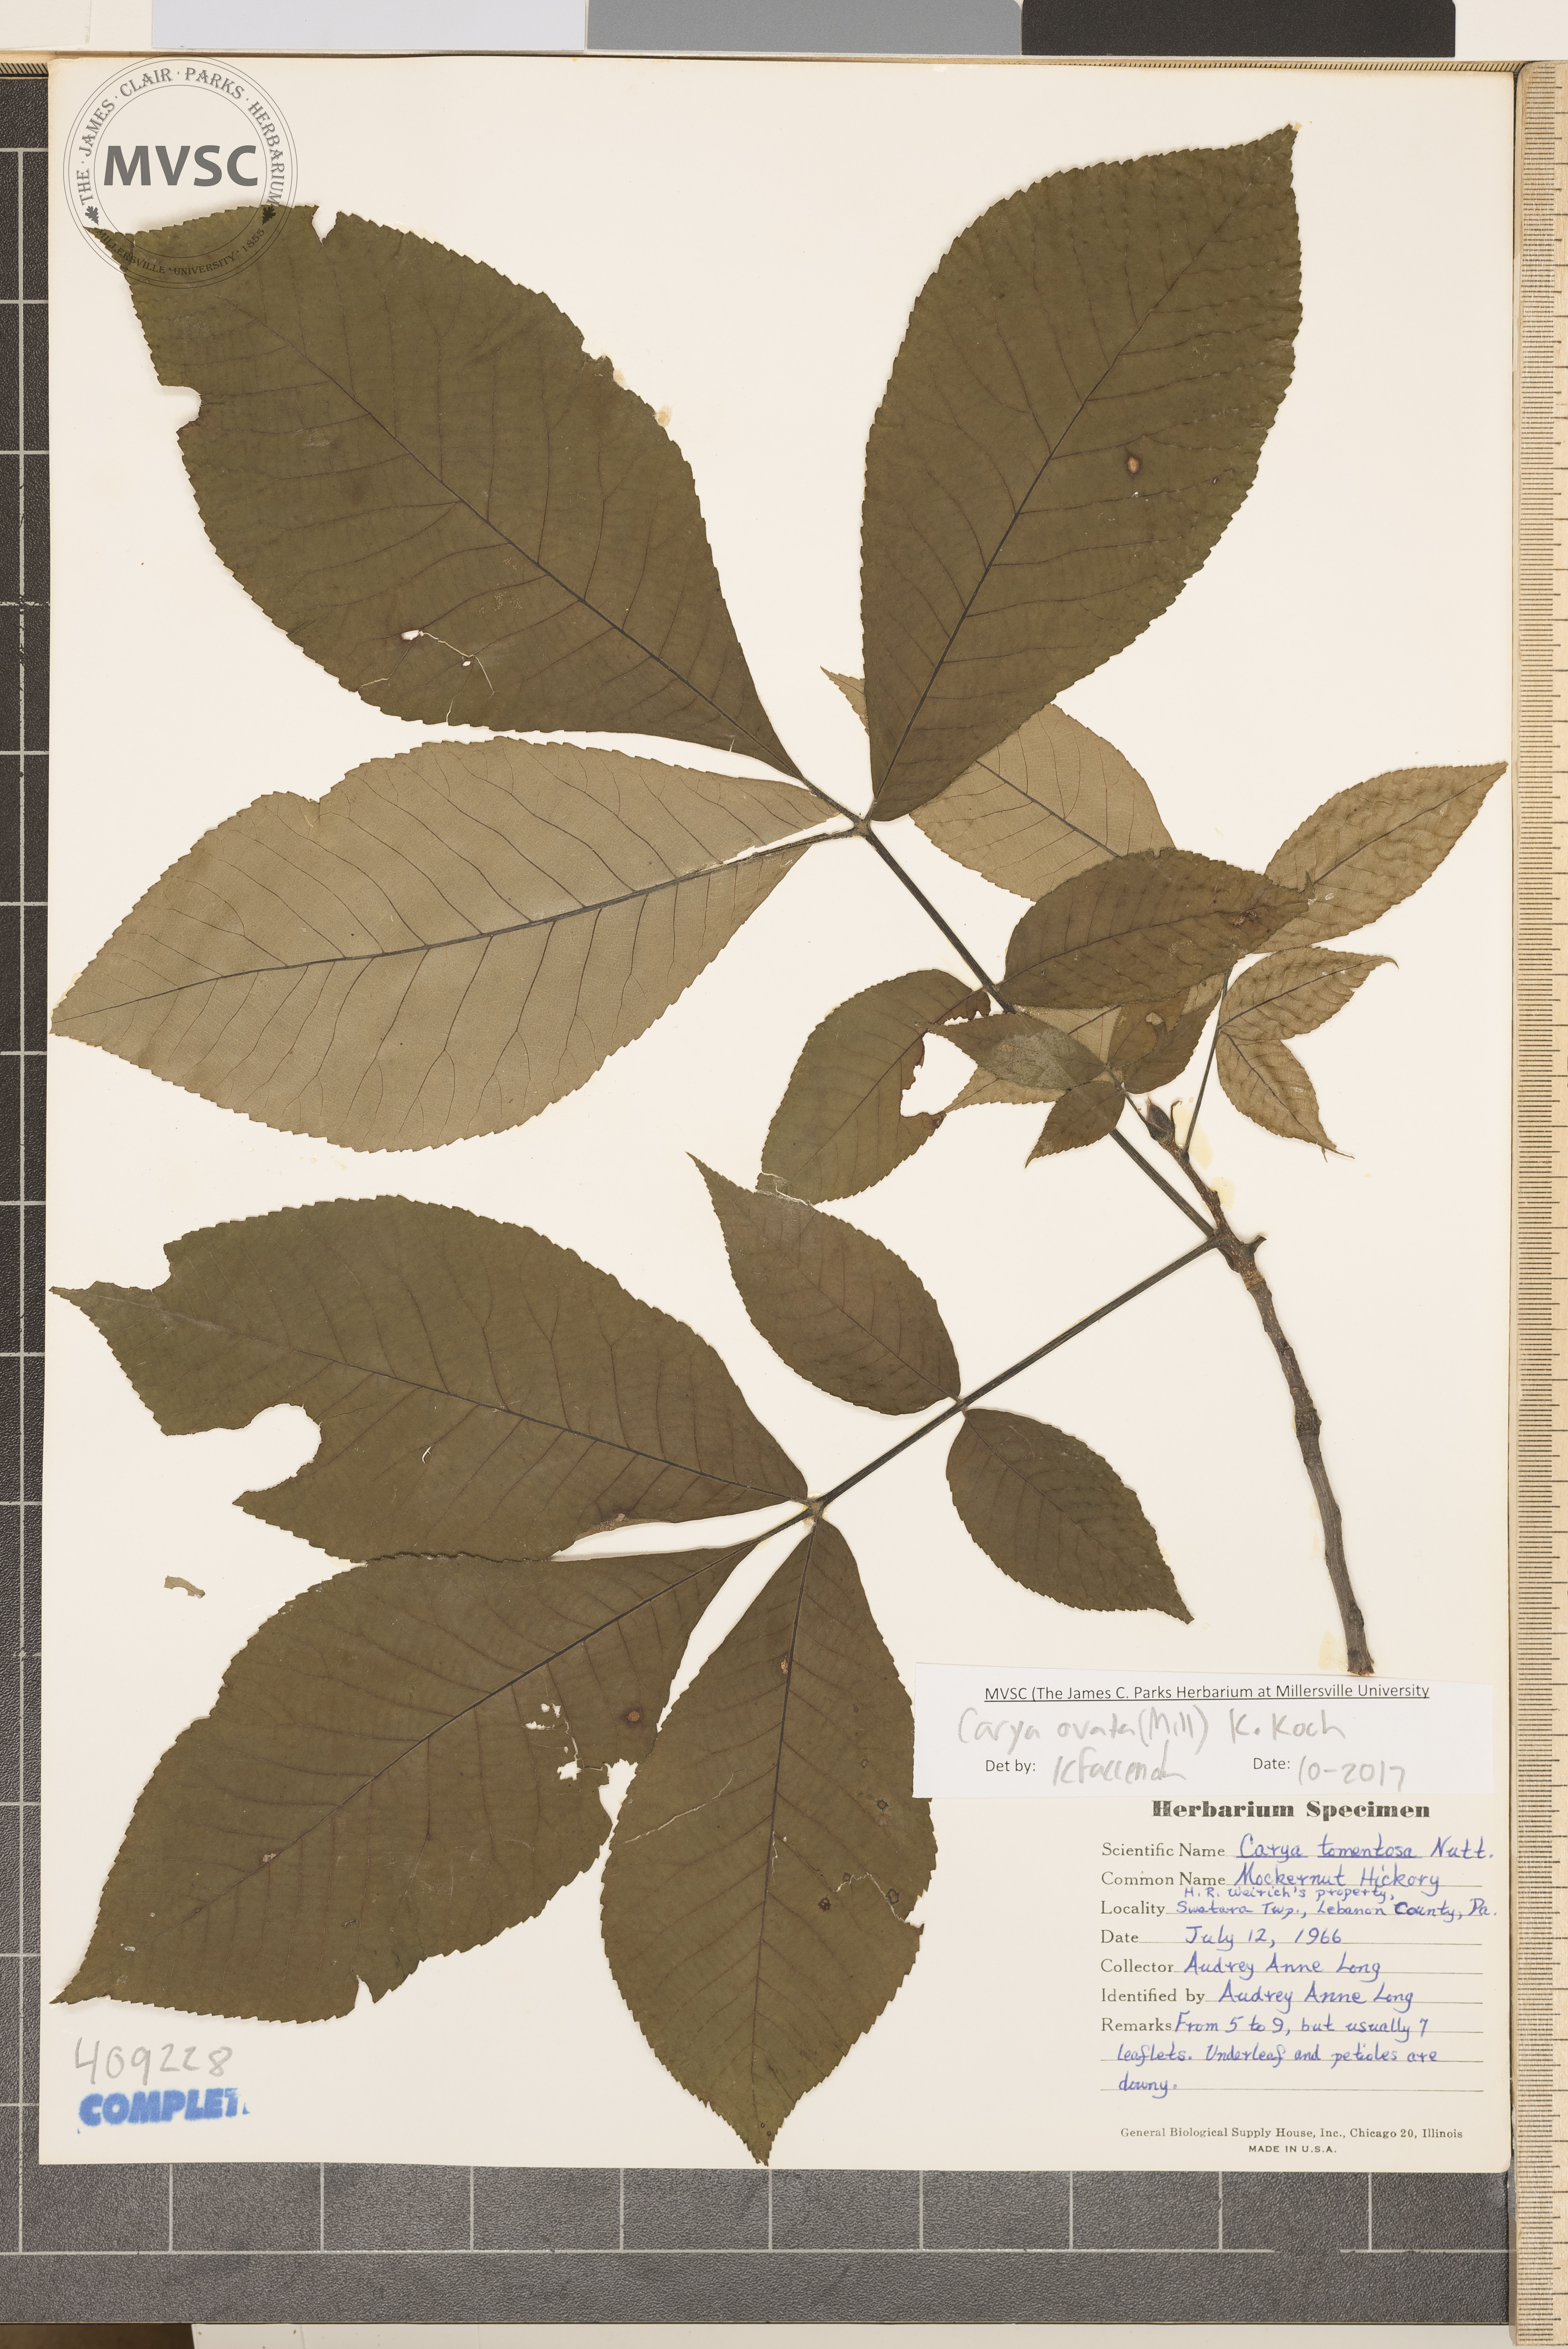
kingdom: Plantae
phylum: Tracheophyta
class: Magnoliopsida
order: Fagales
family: Juglandaceae
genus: Carya
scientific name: Carya ovata
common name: Shagbark hickory
